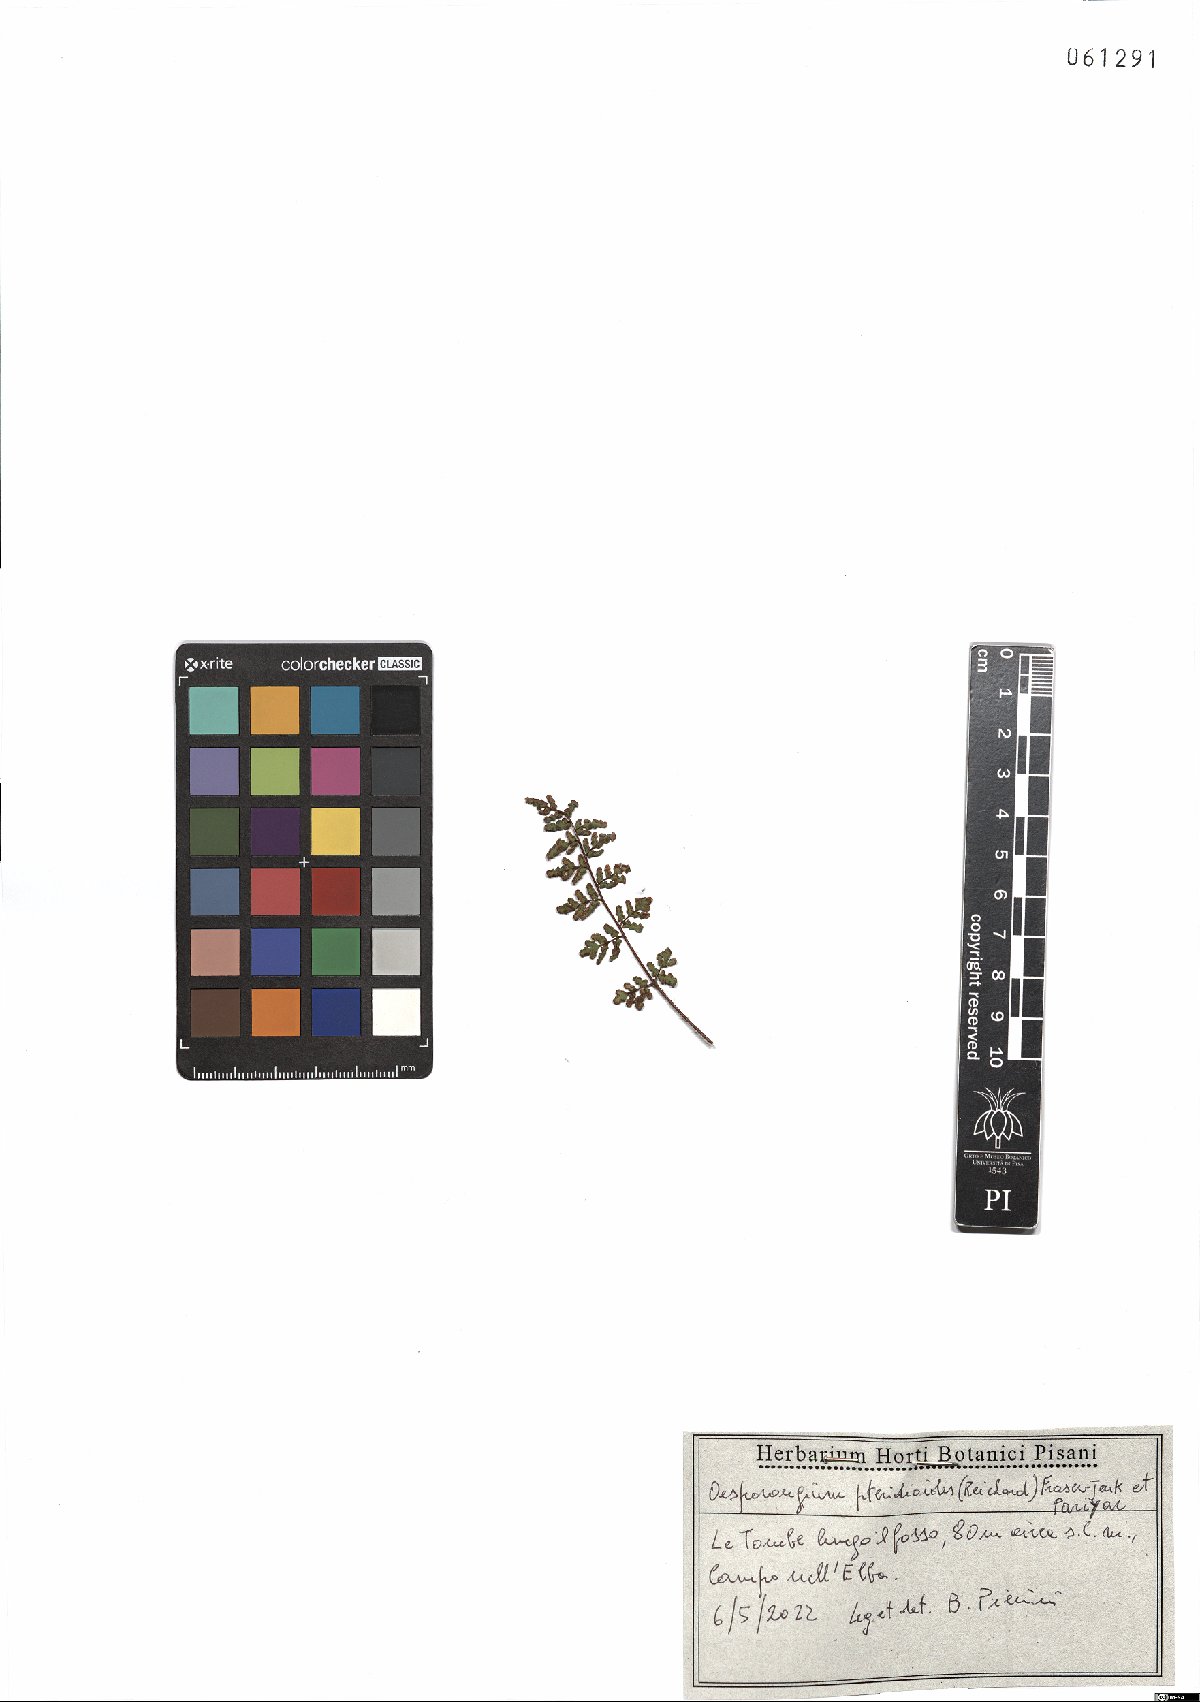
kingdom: Plantae
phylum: Tracheophyta
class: Polypodiopsida
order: Polypodiales
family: Pteridaceae
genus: Oeosporangium
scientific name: Oeosporangium pteridioides
